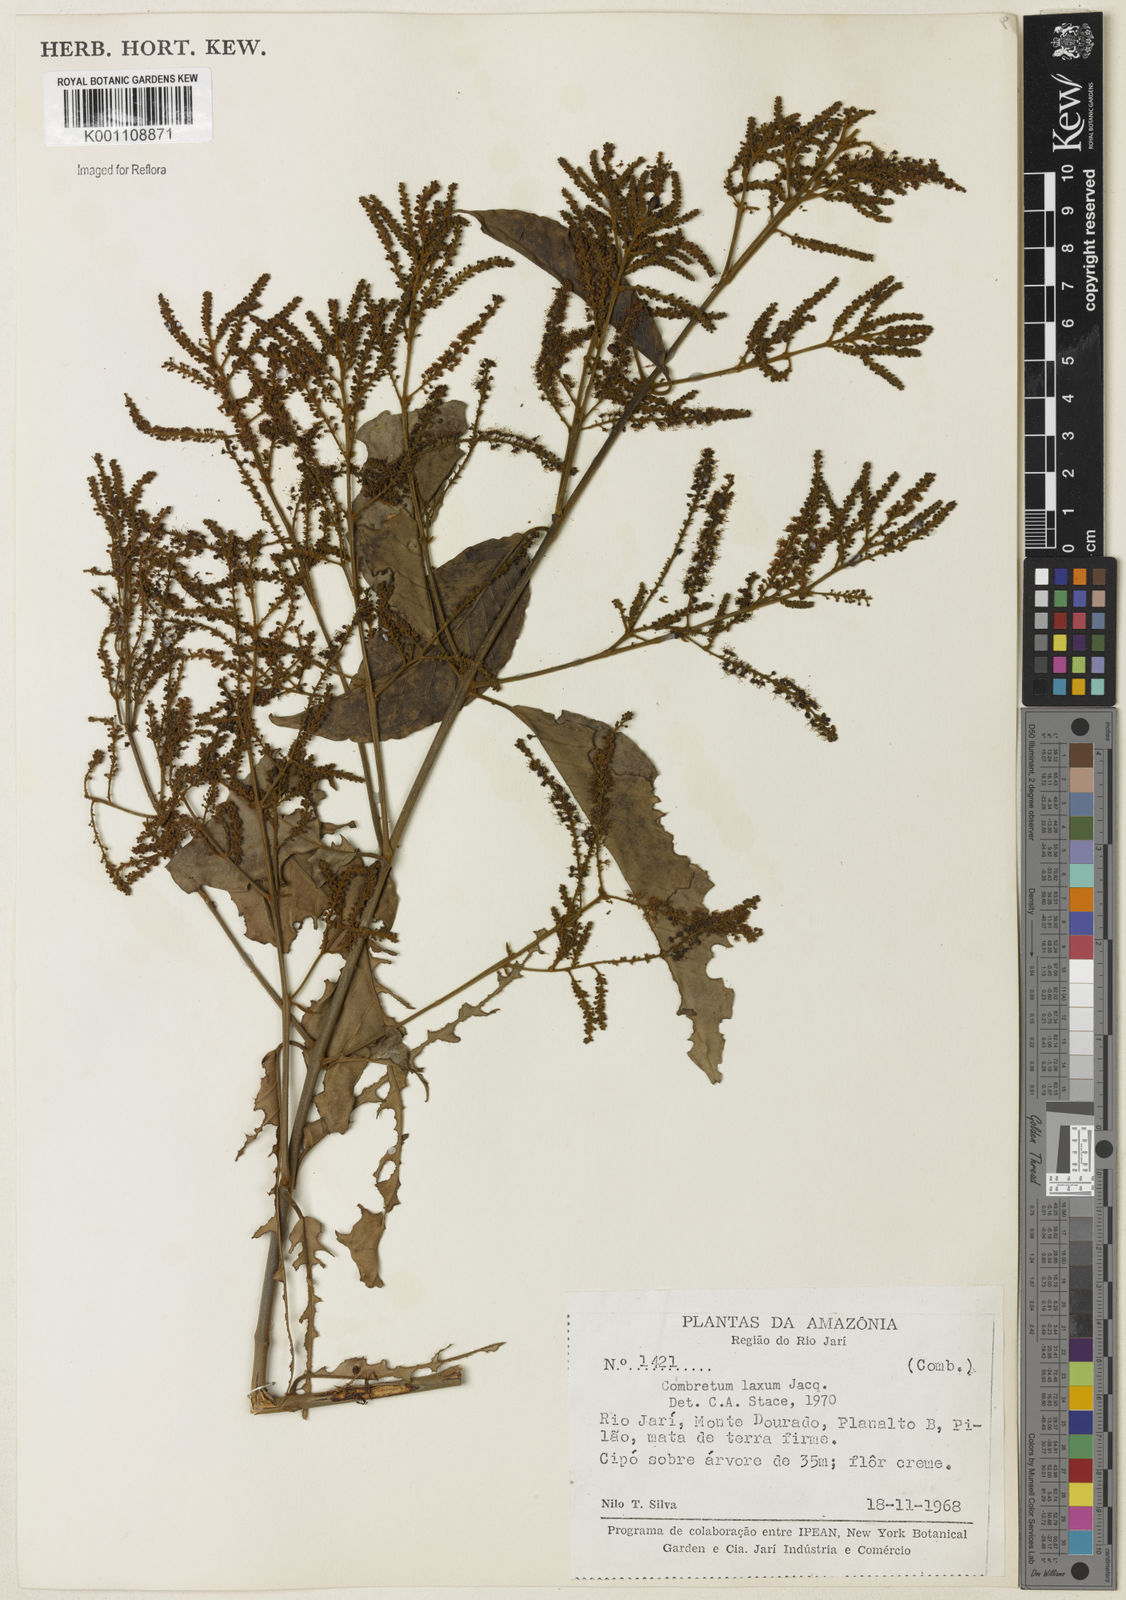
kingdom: Plantae
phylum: Tracheophyta
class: Magnoliopsida
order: Myrtales
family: Combretaceae
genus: Combretum
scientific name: Combretum laxum
